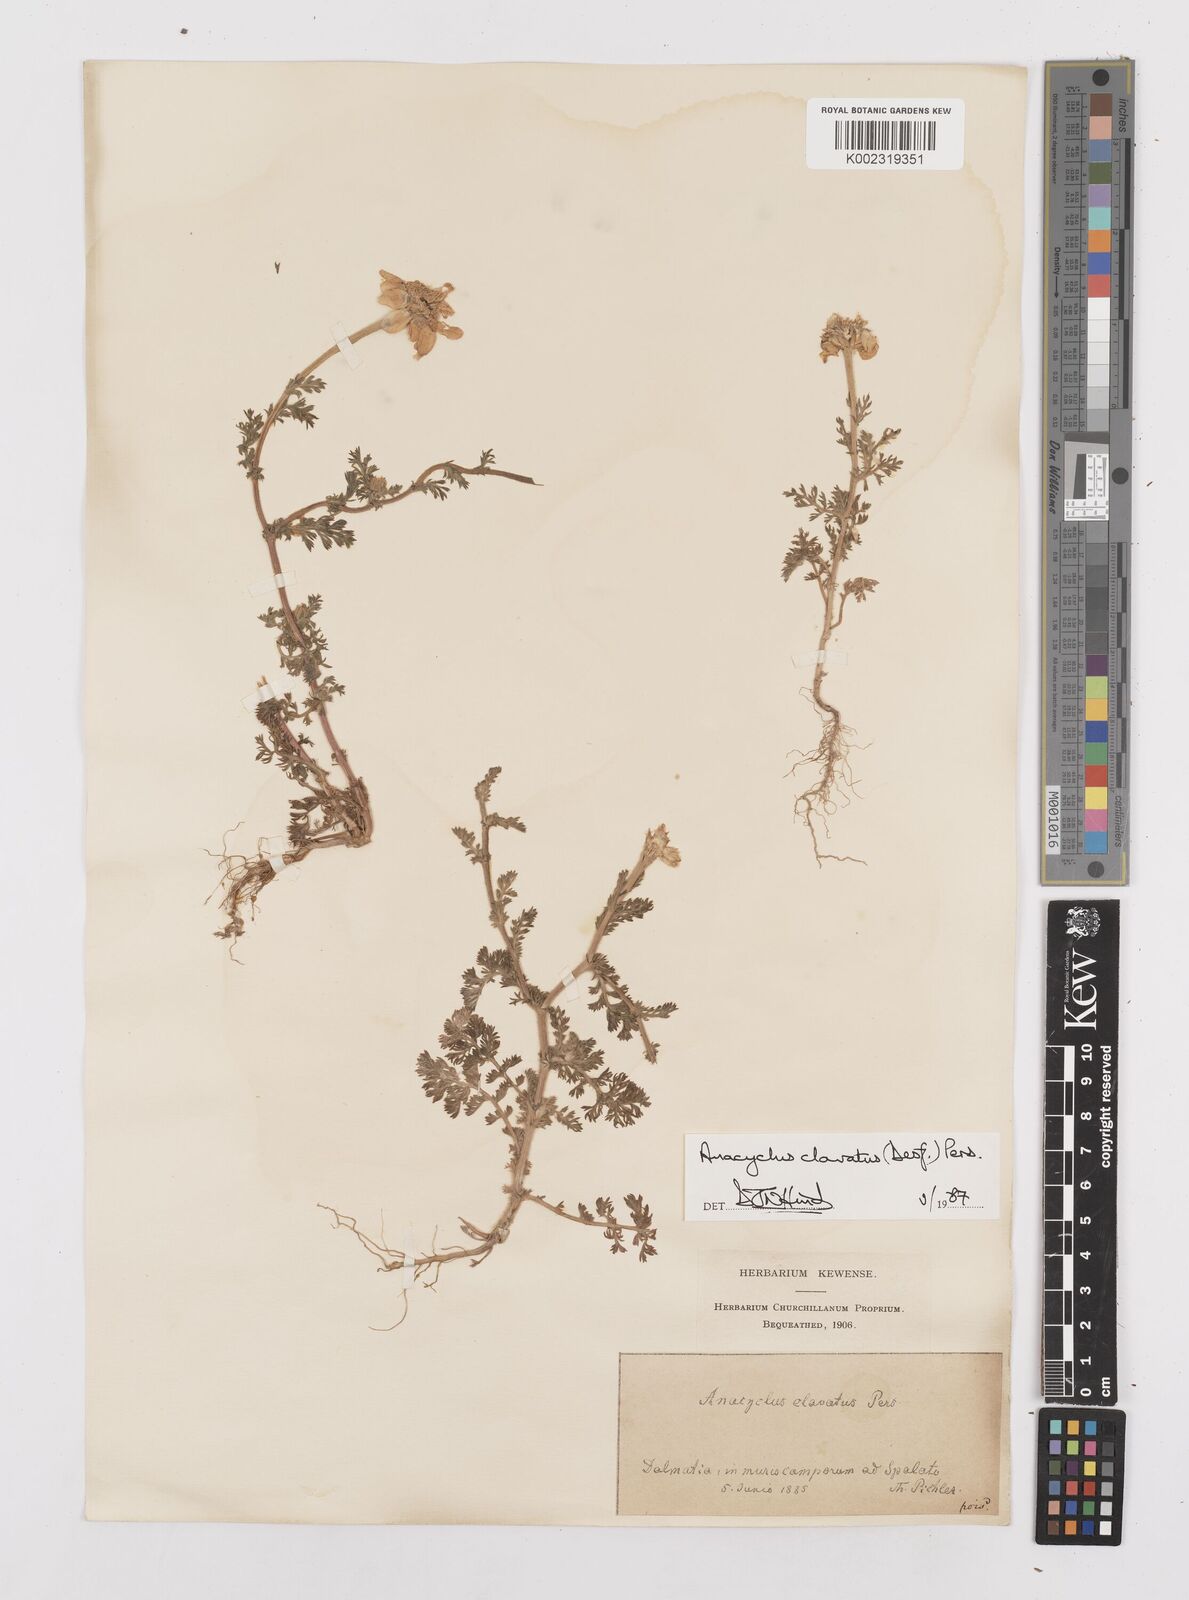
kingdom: Plantae
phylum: Tracheophyta
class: Magnoliopsida
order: Asterales
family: Asteraceae
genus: Anacyclus
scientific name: Anacyclus clavatus
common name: Whitebuttons
